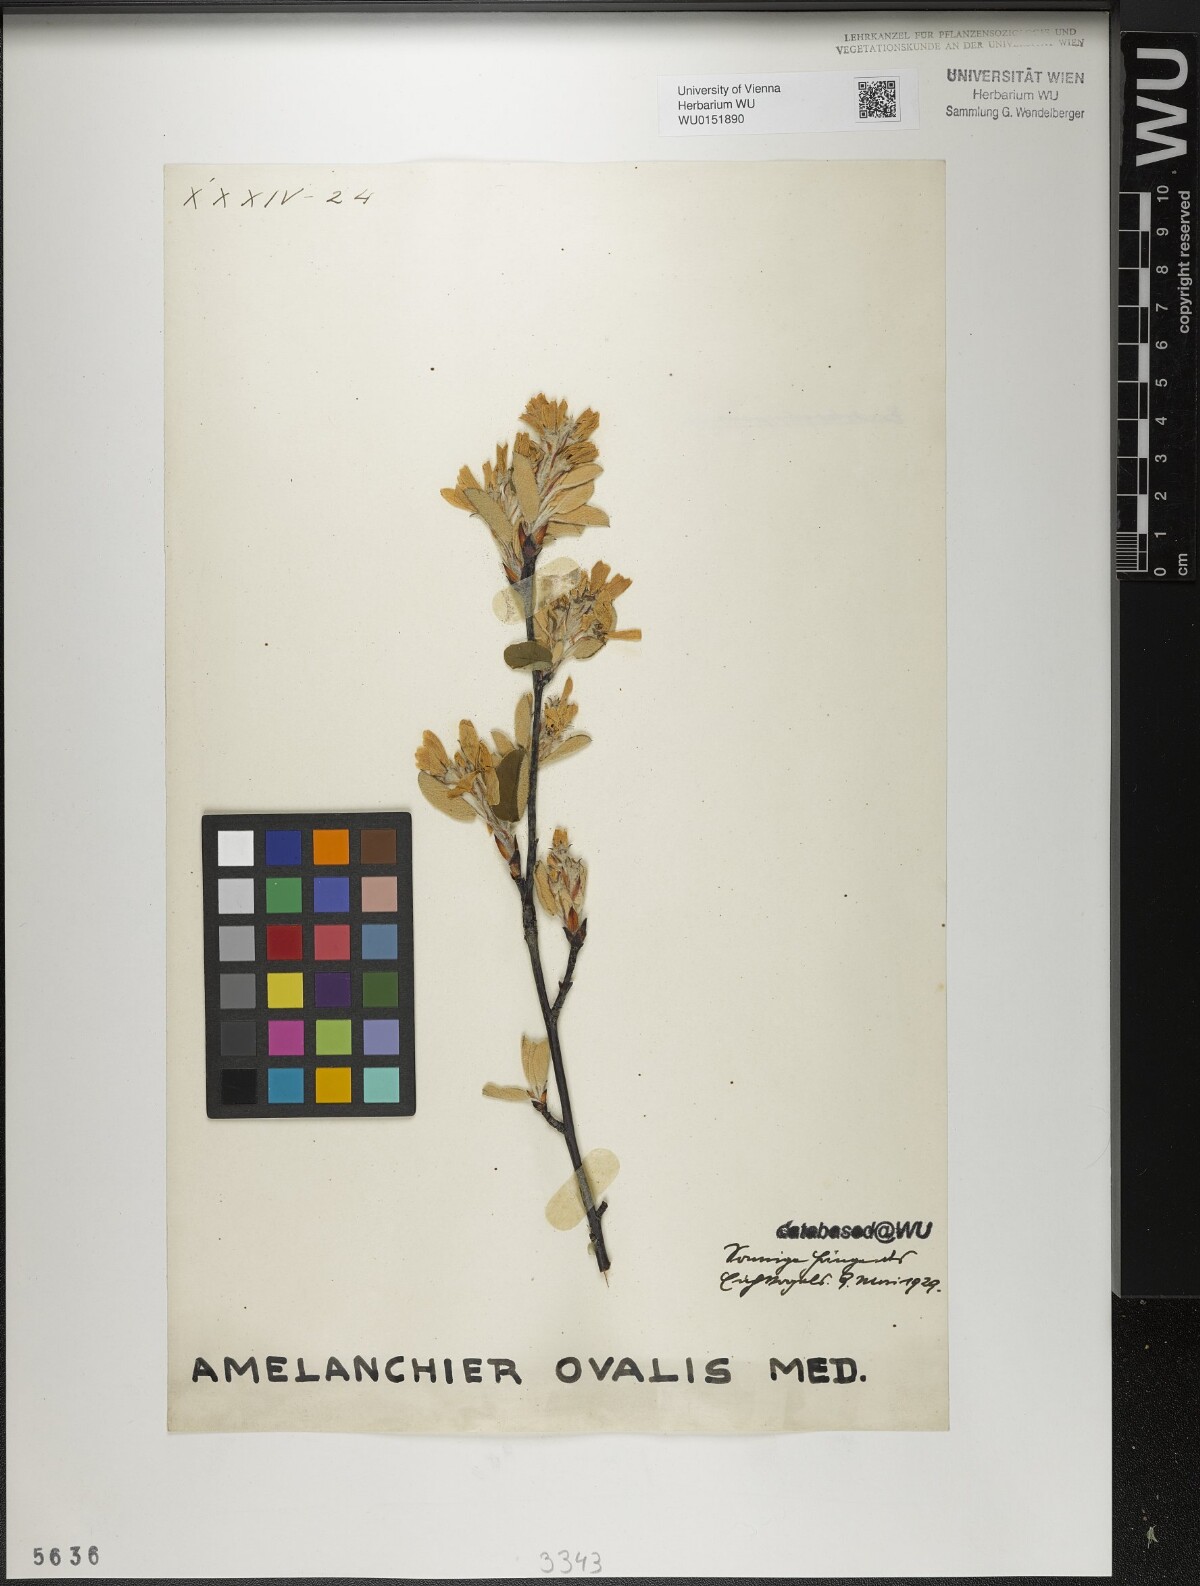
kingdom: Plantae
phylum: Tracheophyta
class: Magnoliopsida
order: Rosales
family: Rosaceae
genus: Amelanchier
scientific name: Amelanchier ovalis
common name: Serviceberry
